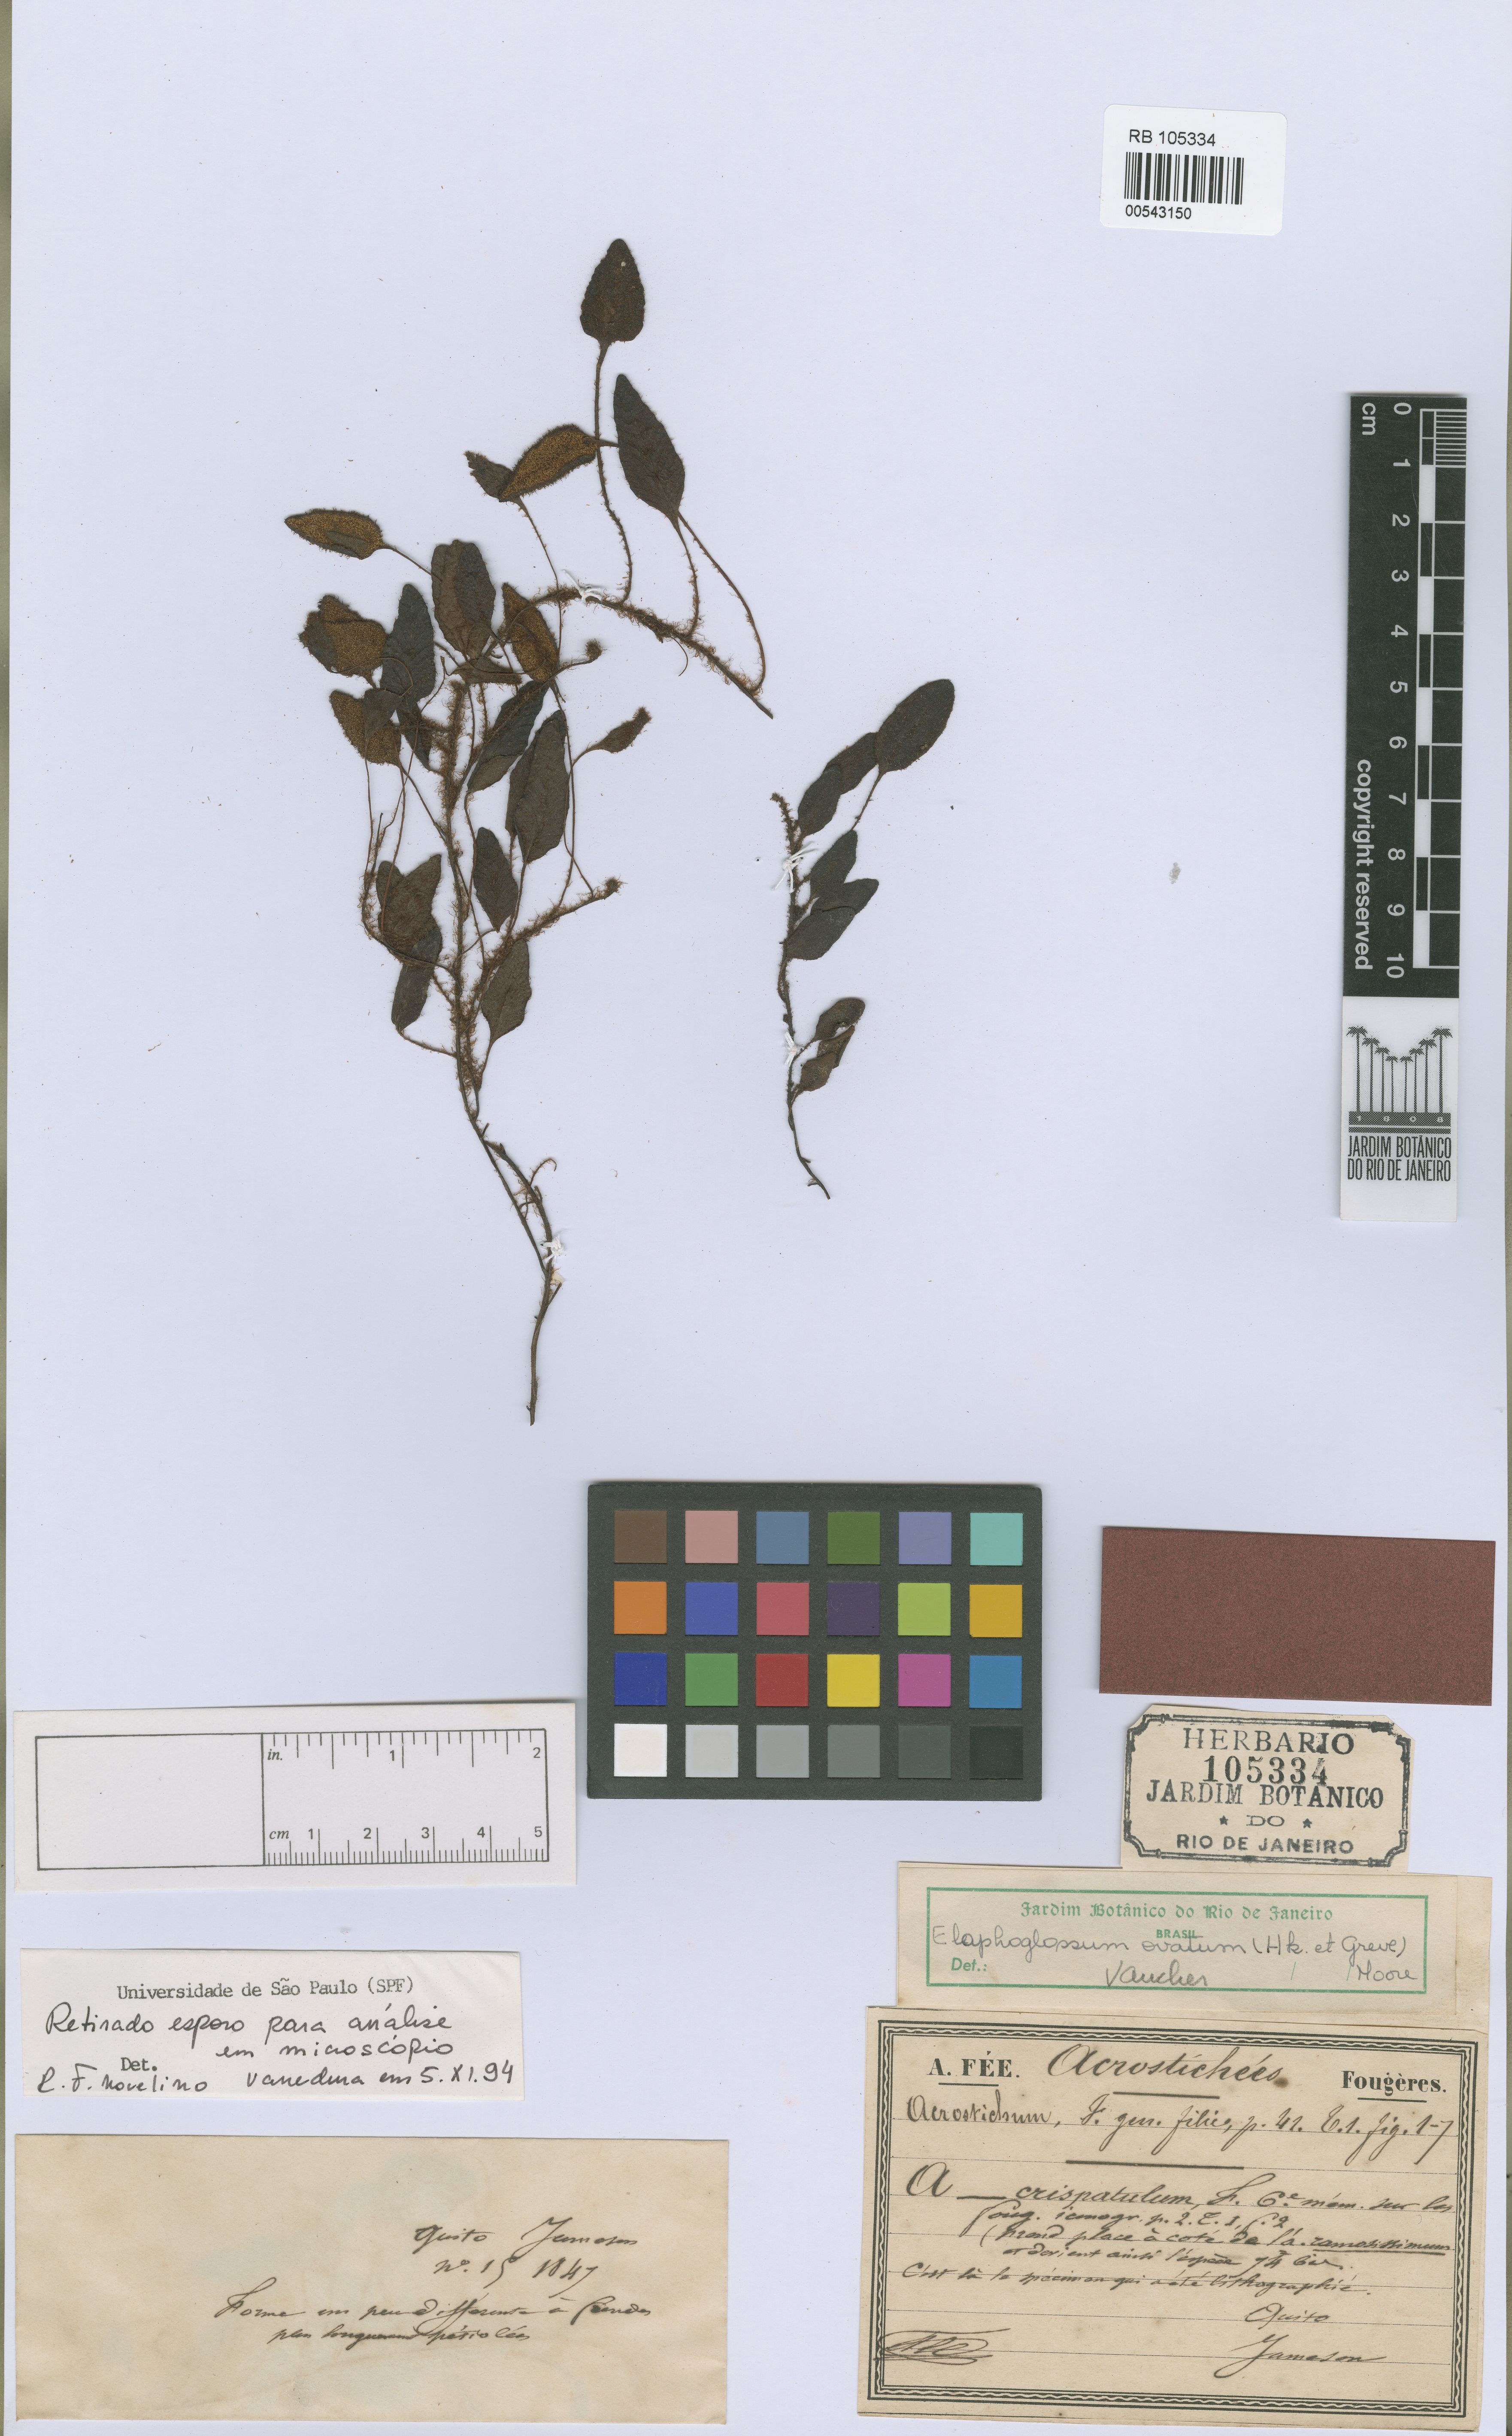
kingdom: Plantae
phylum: Tracheophyta
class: Polypodiopsida
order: Polypodiales
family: Dryopteridaceae
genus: Elaphoglossum
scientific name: Elaphoglossum ovatum
